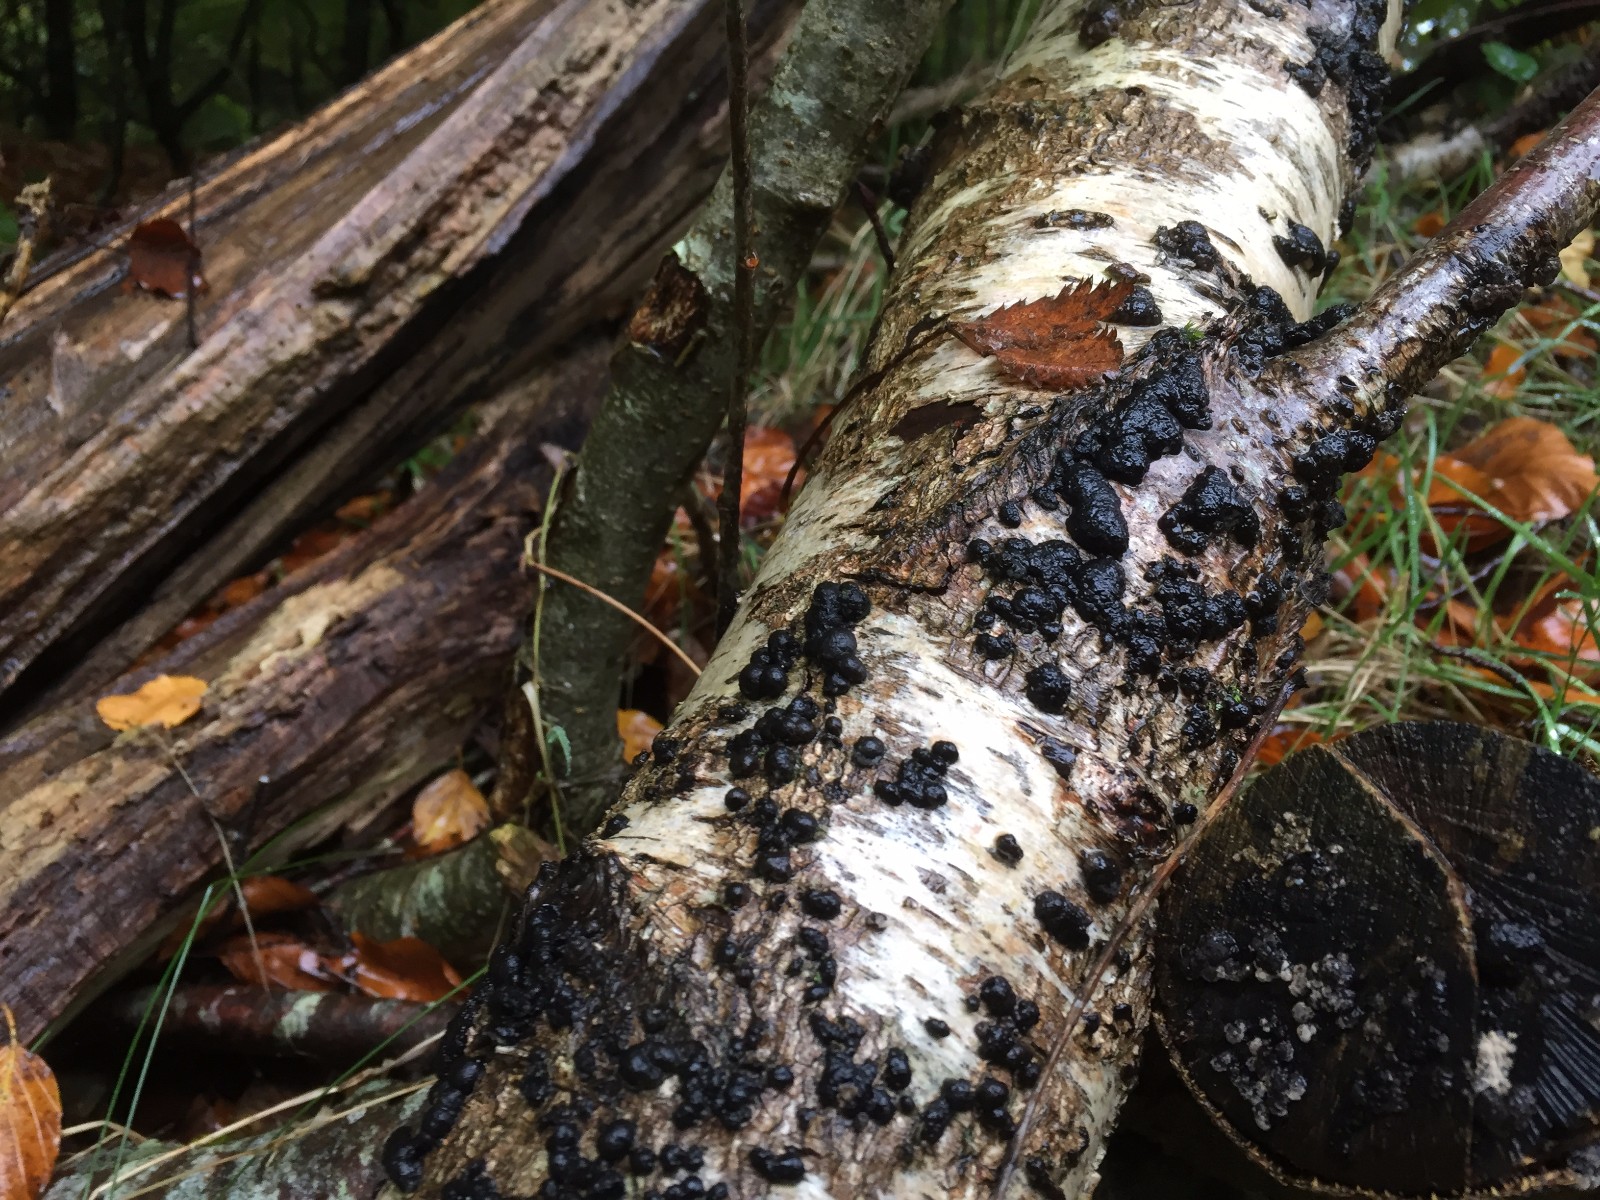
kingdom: Fungi
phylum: Ascomycota
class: Sordariomycetes
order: Xylariales
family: Hypoxylaceae
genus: Jackrogersella
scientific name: Jackrogersella multiformis
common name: foranderlig kulbær
